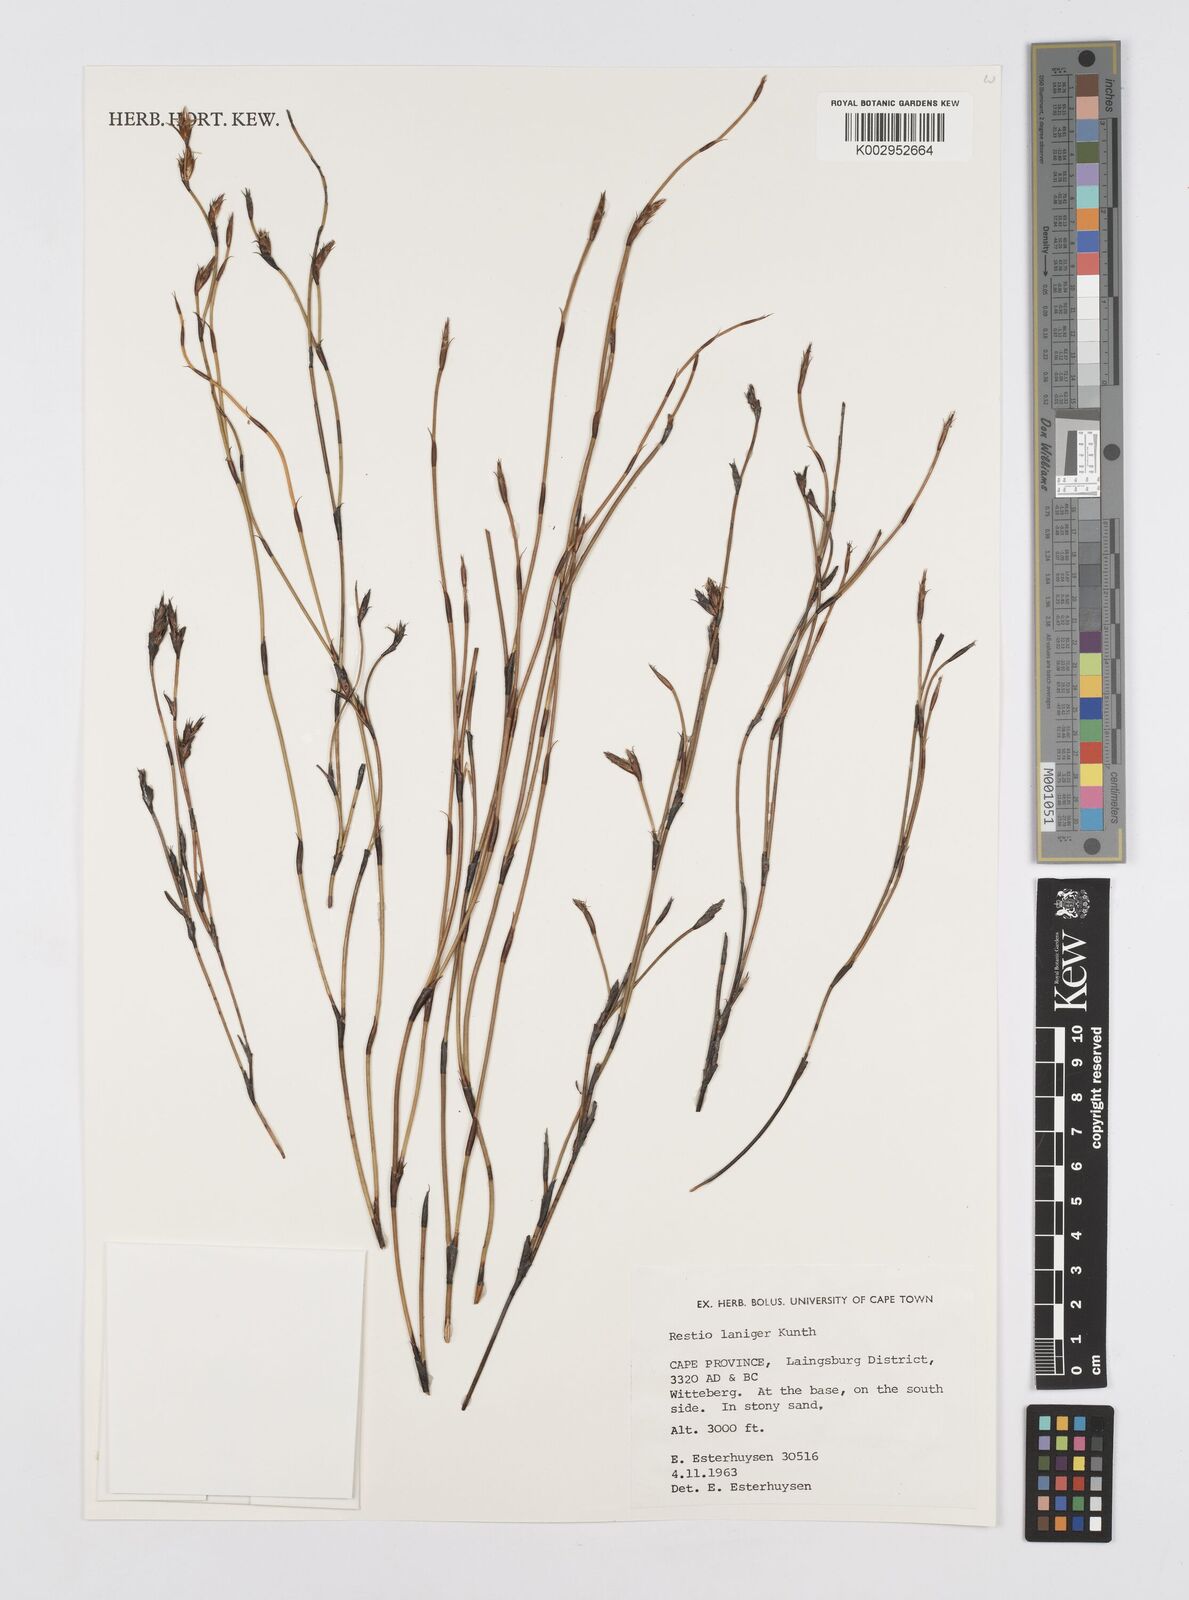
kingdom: Plantae
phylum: Tracheophyta
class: Liliopsida
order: Poales
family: Restionaceae
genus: Restio
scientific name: Restio laniger
